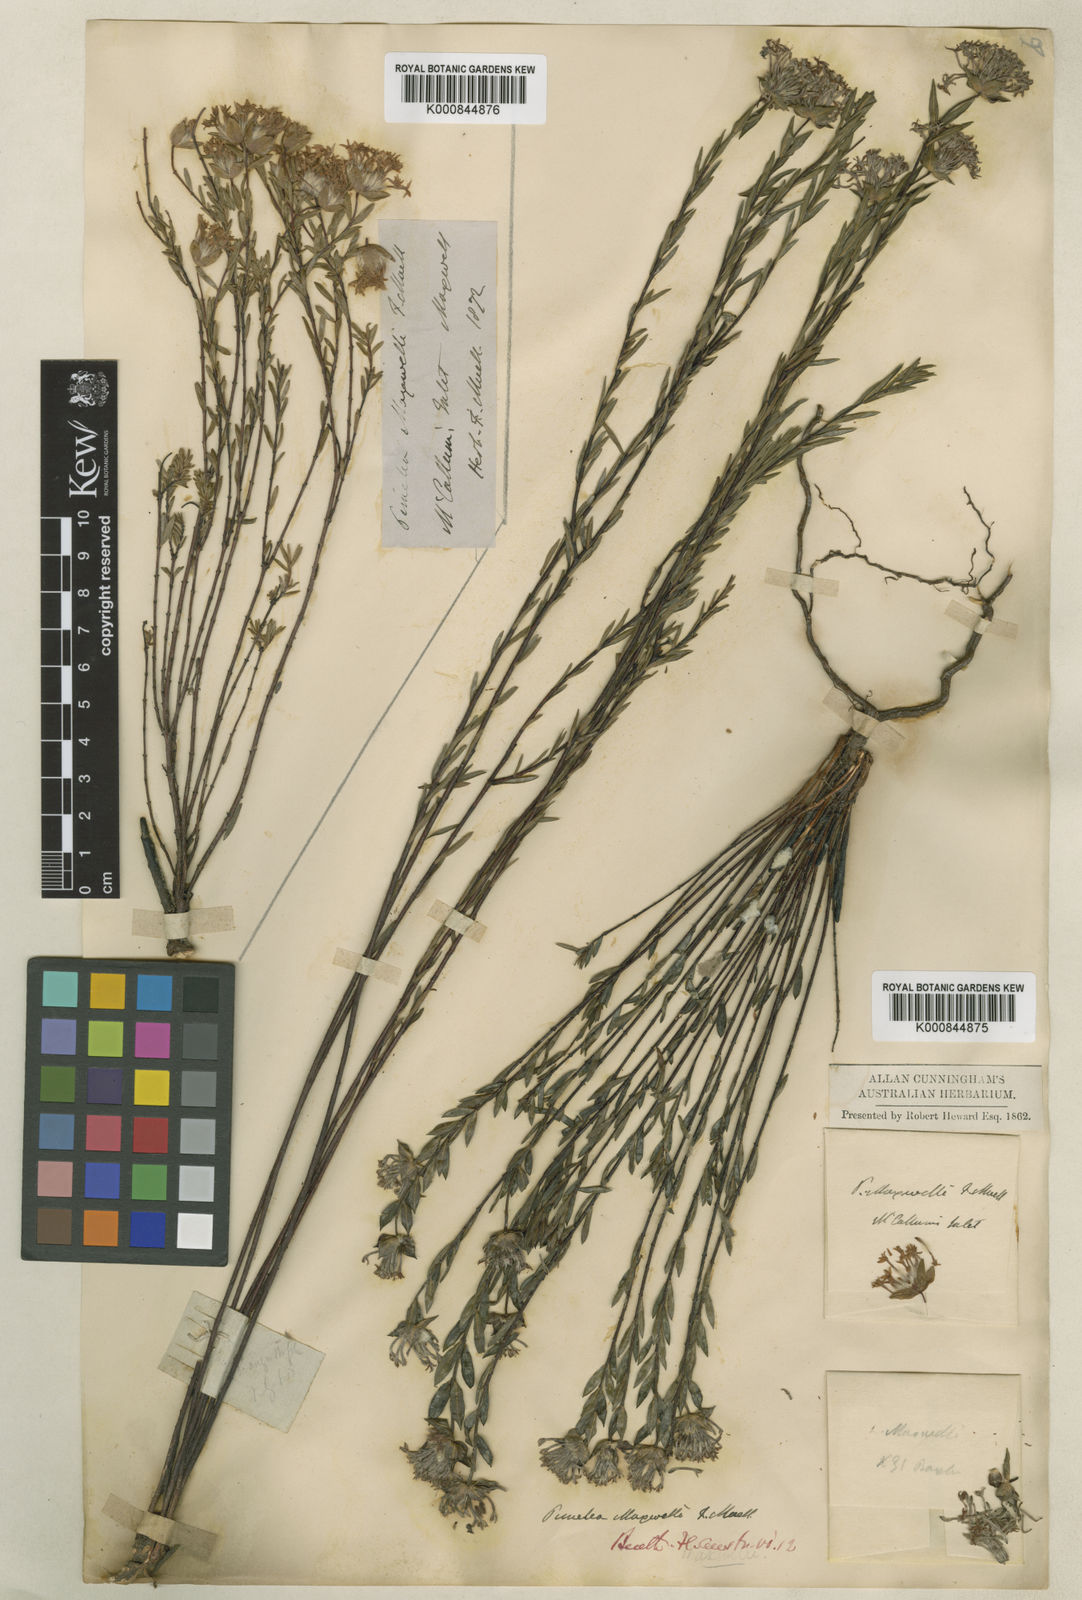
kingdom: Plantae
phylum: Tracheophyta
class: Magnoliopsida
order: Malvales
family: Thymelaeaceae
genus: Pimelea
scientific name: Pimelea angustifolia
